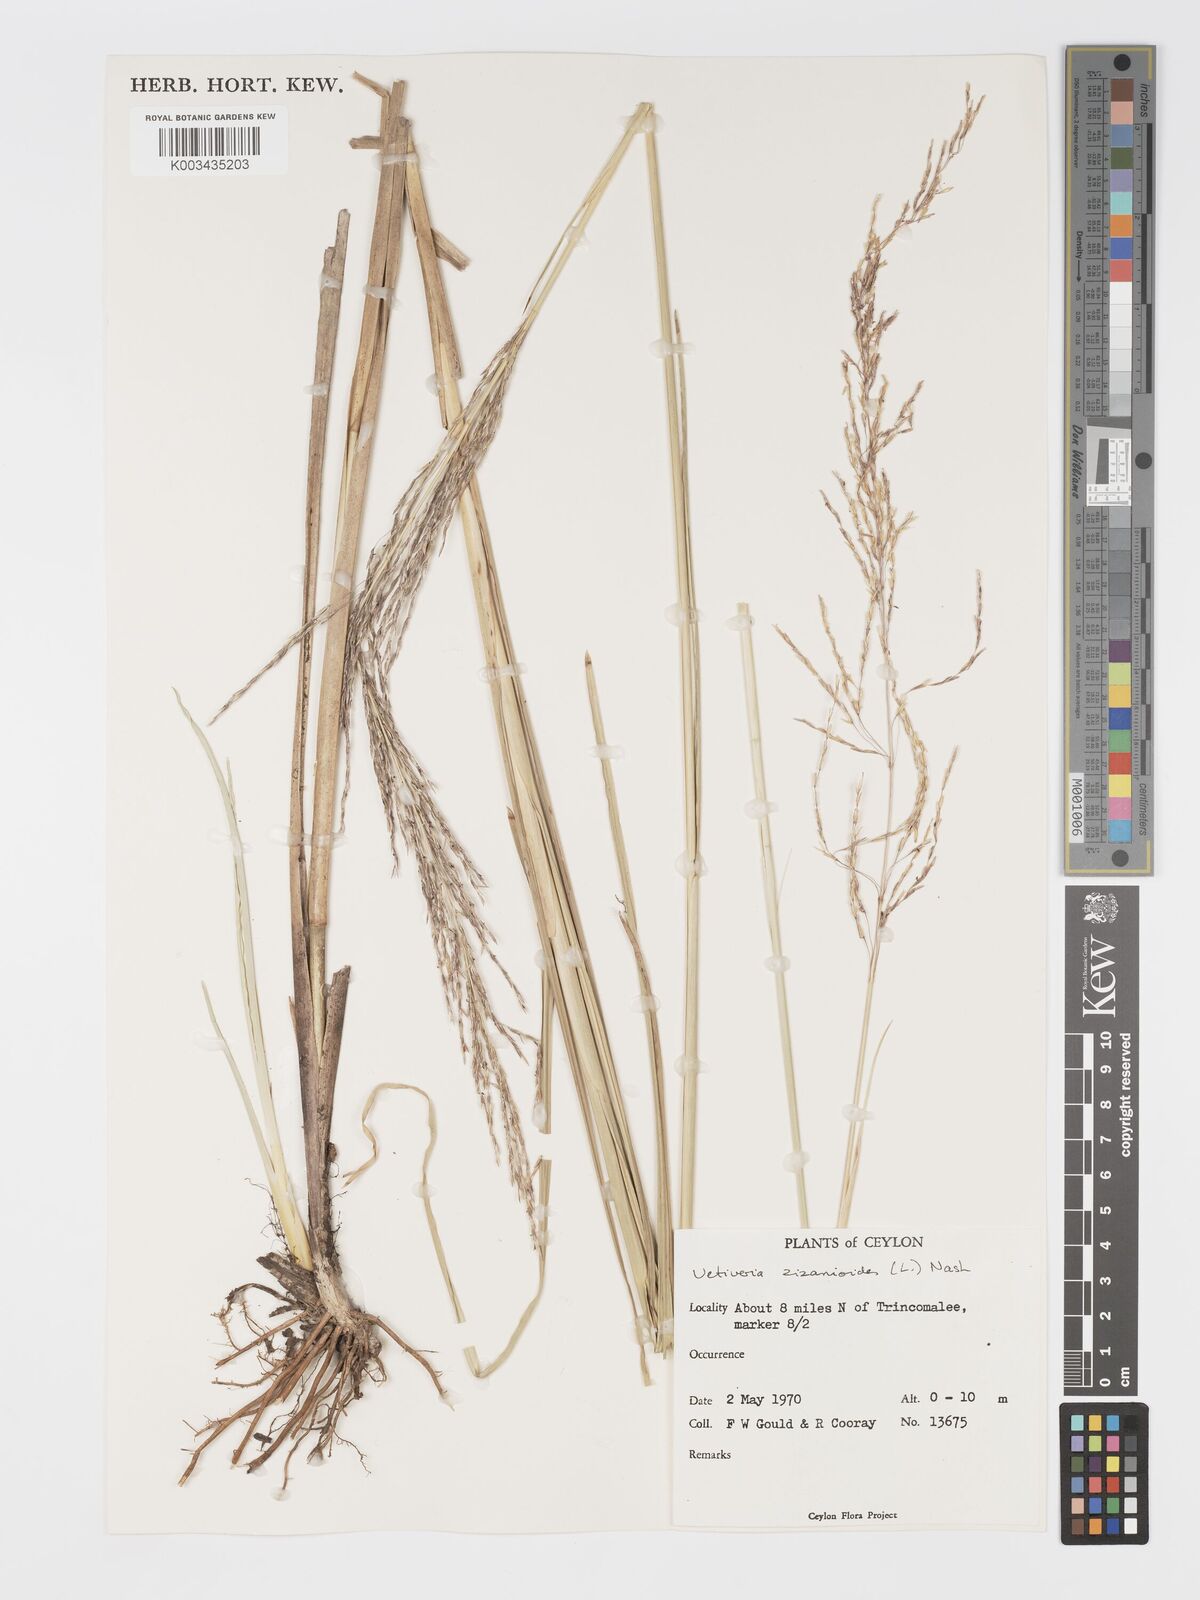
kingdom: Plantae
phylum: Tracheophyta
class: Liliopsida
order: Poales
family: Poaceae
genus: Chrysopogon
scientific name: Chrysopogon zizanioides
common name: False beardgrass
